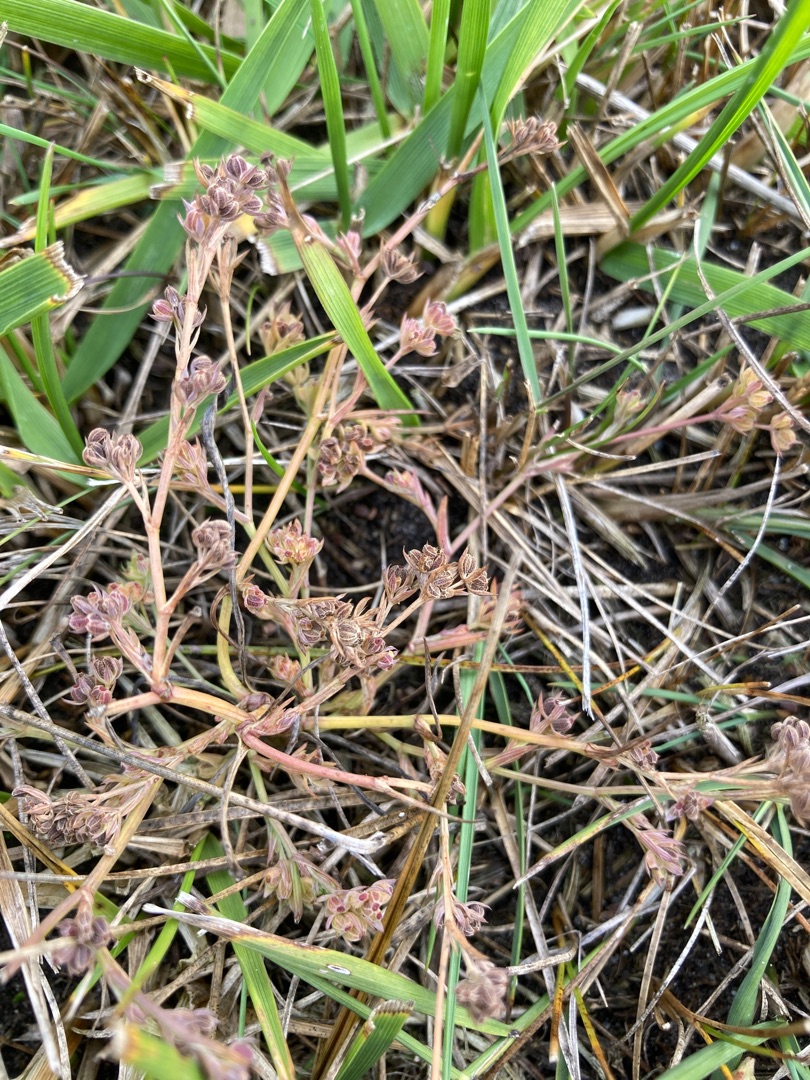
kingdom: Plantae
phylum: Tracheophyta
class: Magnoliopsida
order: Apiales
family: Apiaceae
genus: Bupleurum
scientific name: Bupleurum tenuissimum
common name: Smalbladet hareøre
